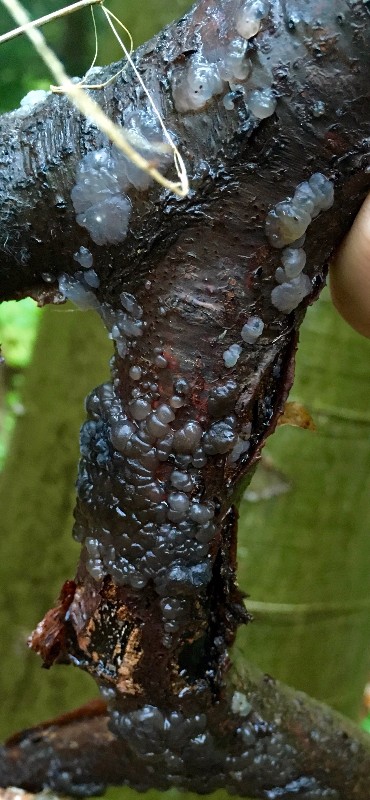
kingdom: Fungi
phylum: Basidiomycota
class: Agaricomycetes
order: Auriculariales
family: Auriculariaceae
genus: Exidia
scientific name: Exidia nigricans
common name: almindelig bævretop
